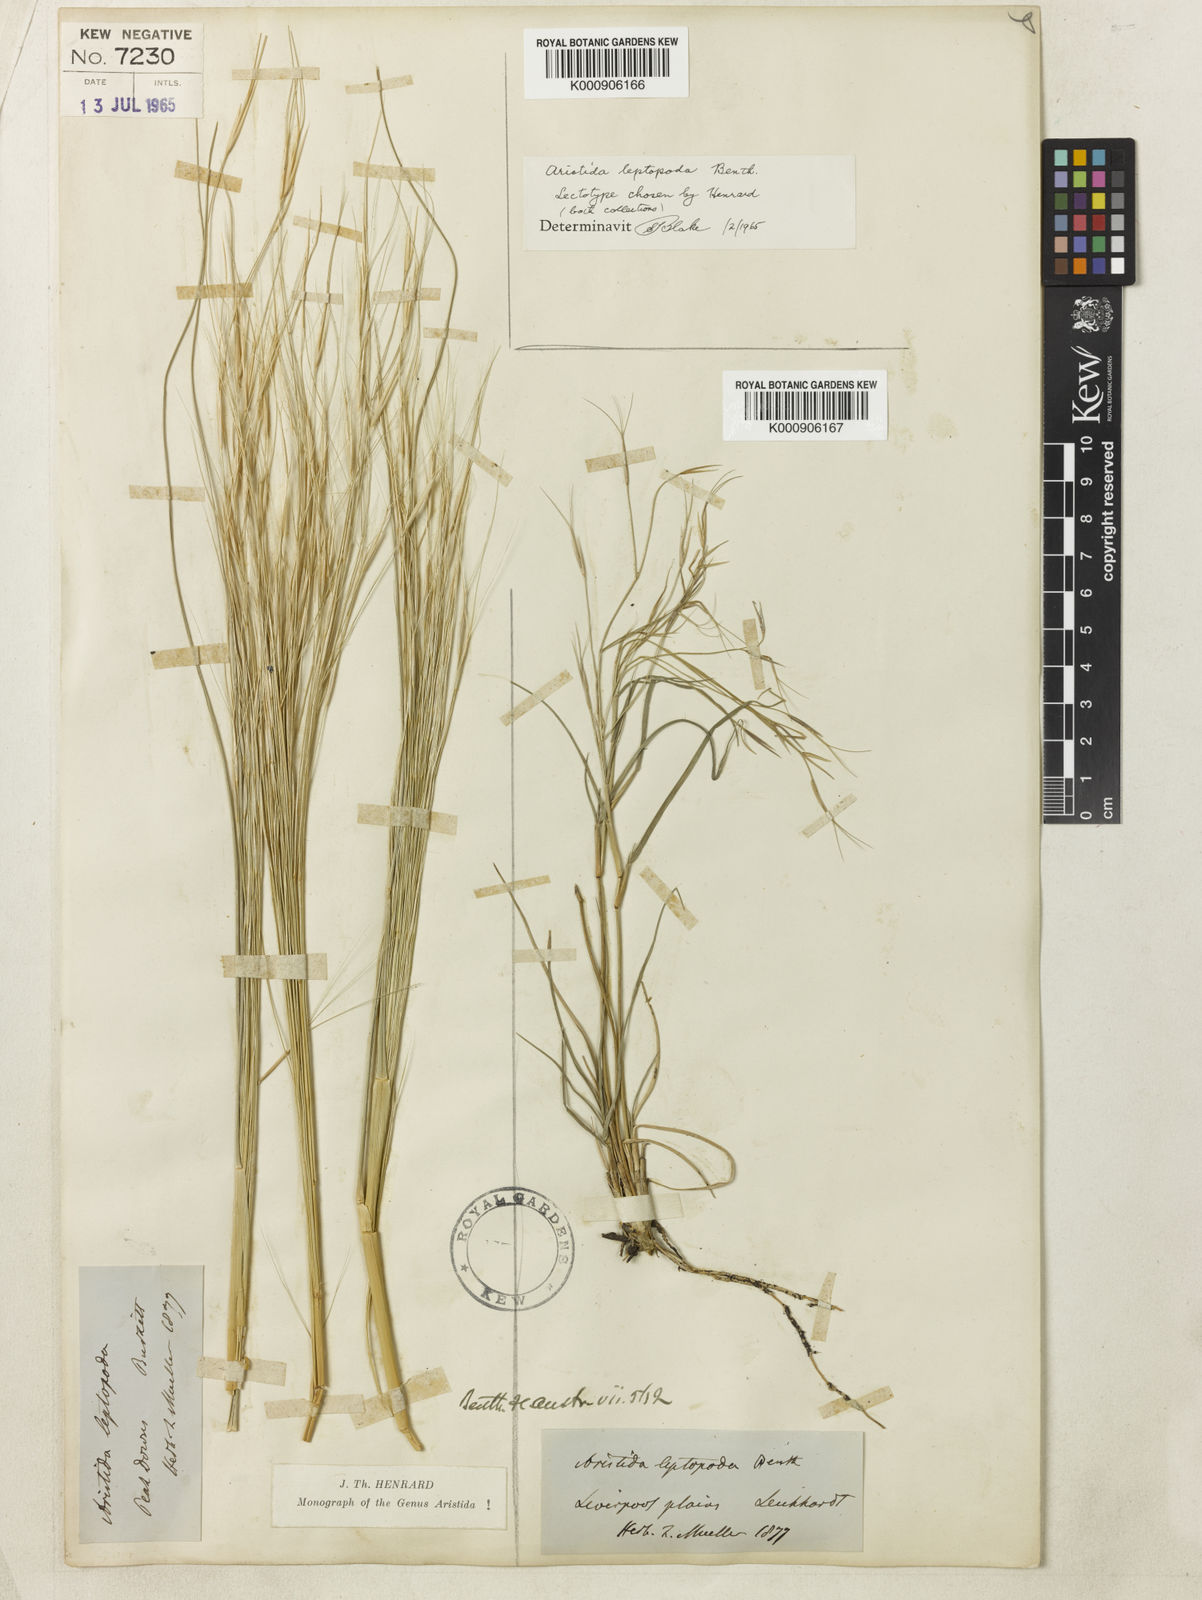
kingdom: Plantae
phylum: Tracheophyta
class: Liliopsida
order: Poales
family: Poaceae
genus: Aristida
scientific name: Aristida leptopoda
